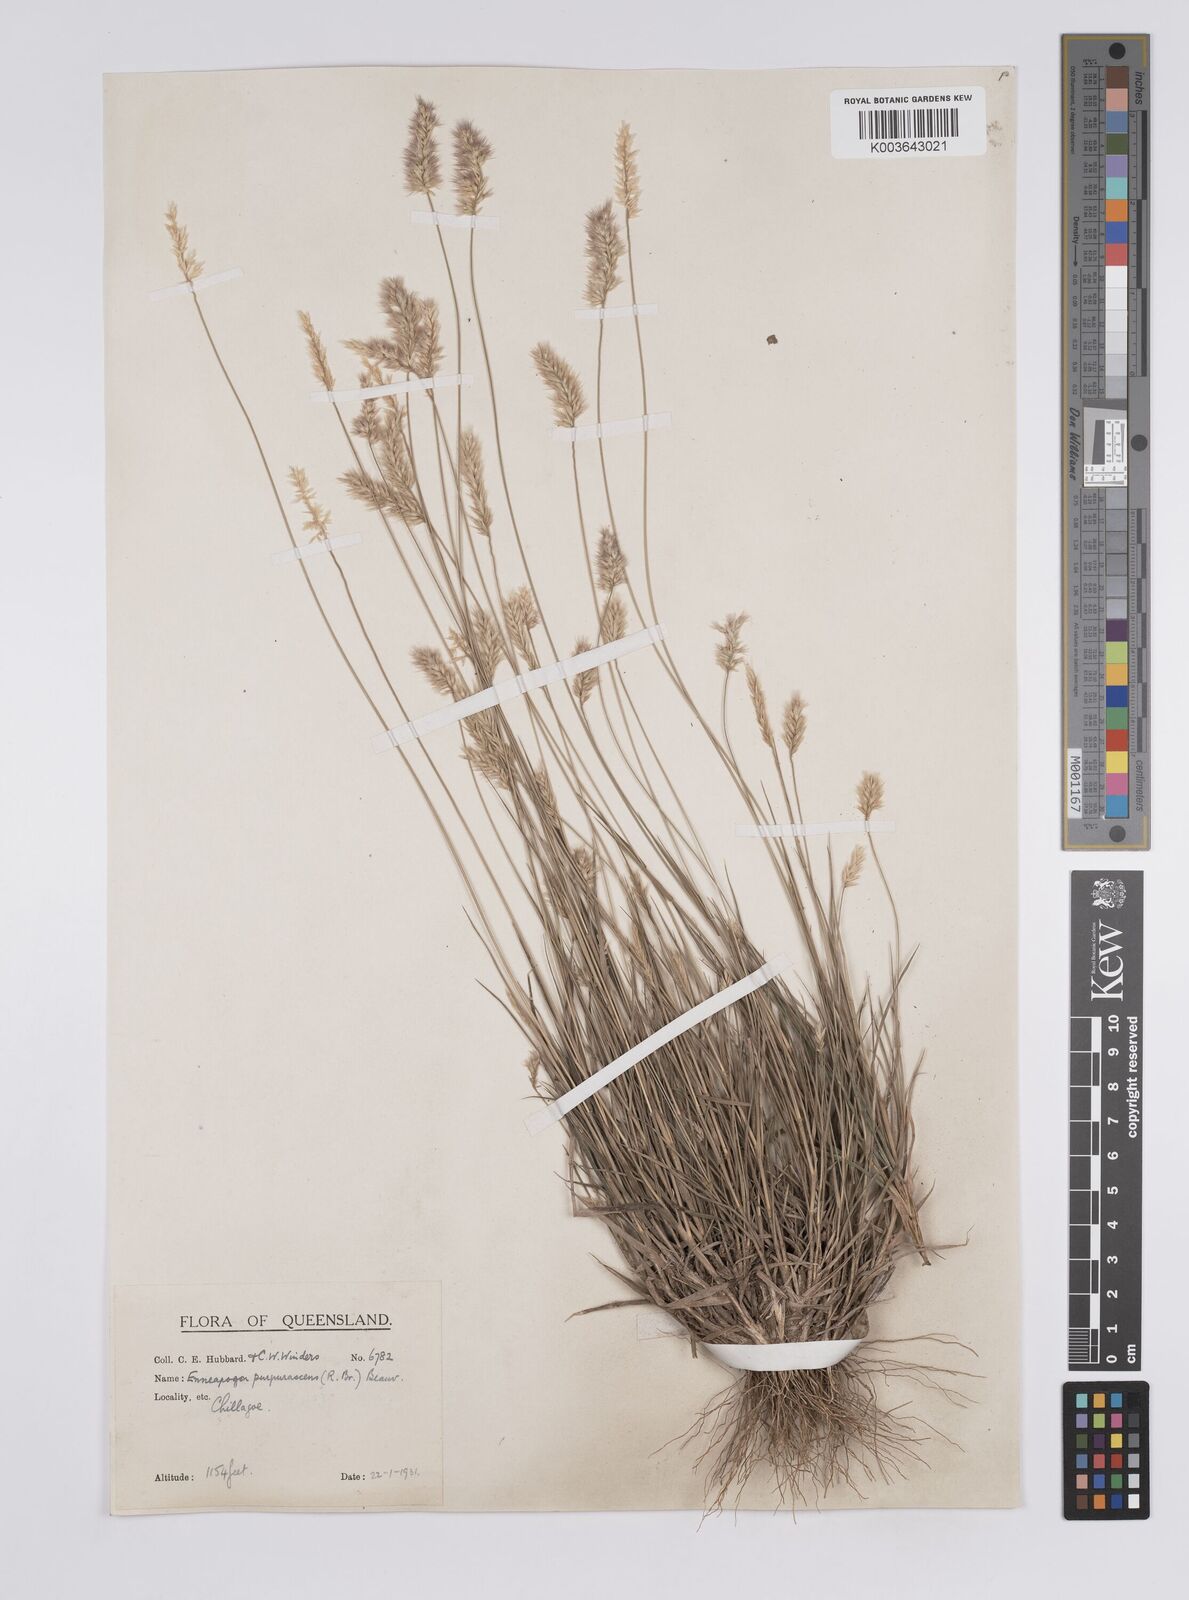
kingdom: Plantae
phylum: Tracheophyta
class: Liliopsida
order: Poales
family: Poaceae
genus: Enneapogon
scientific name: Enneapogon purpurascens
